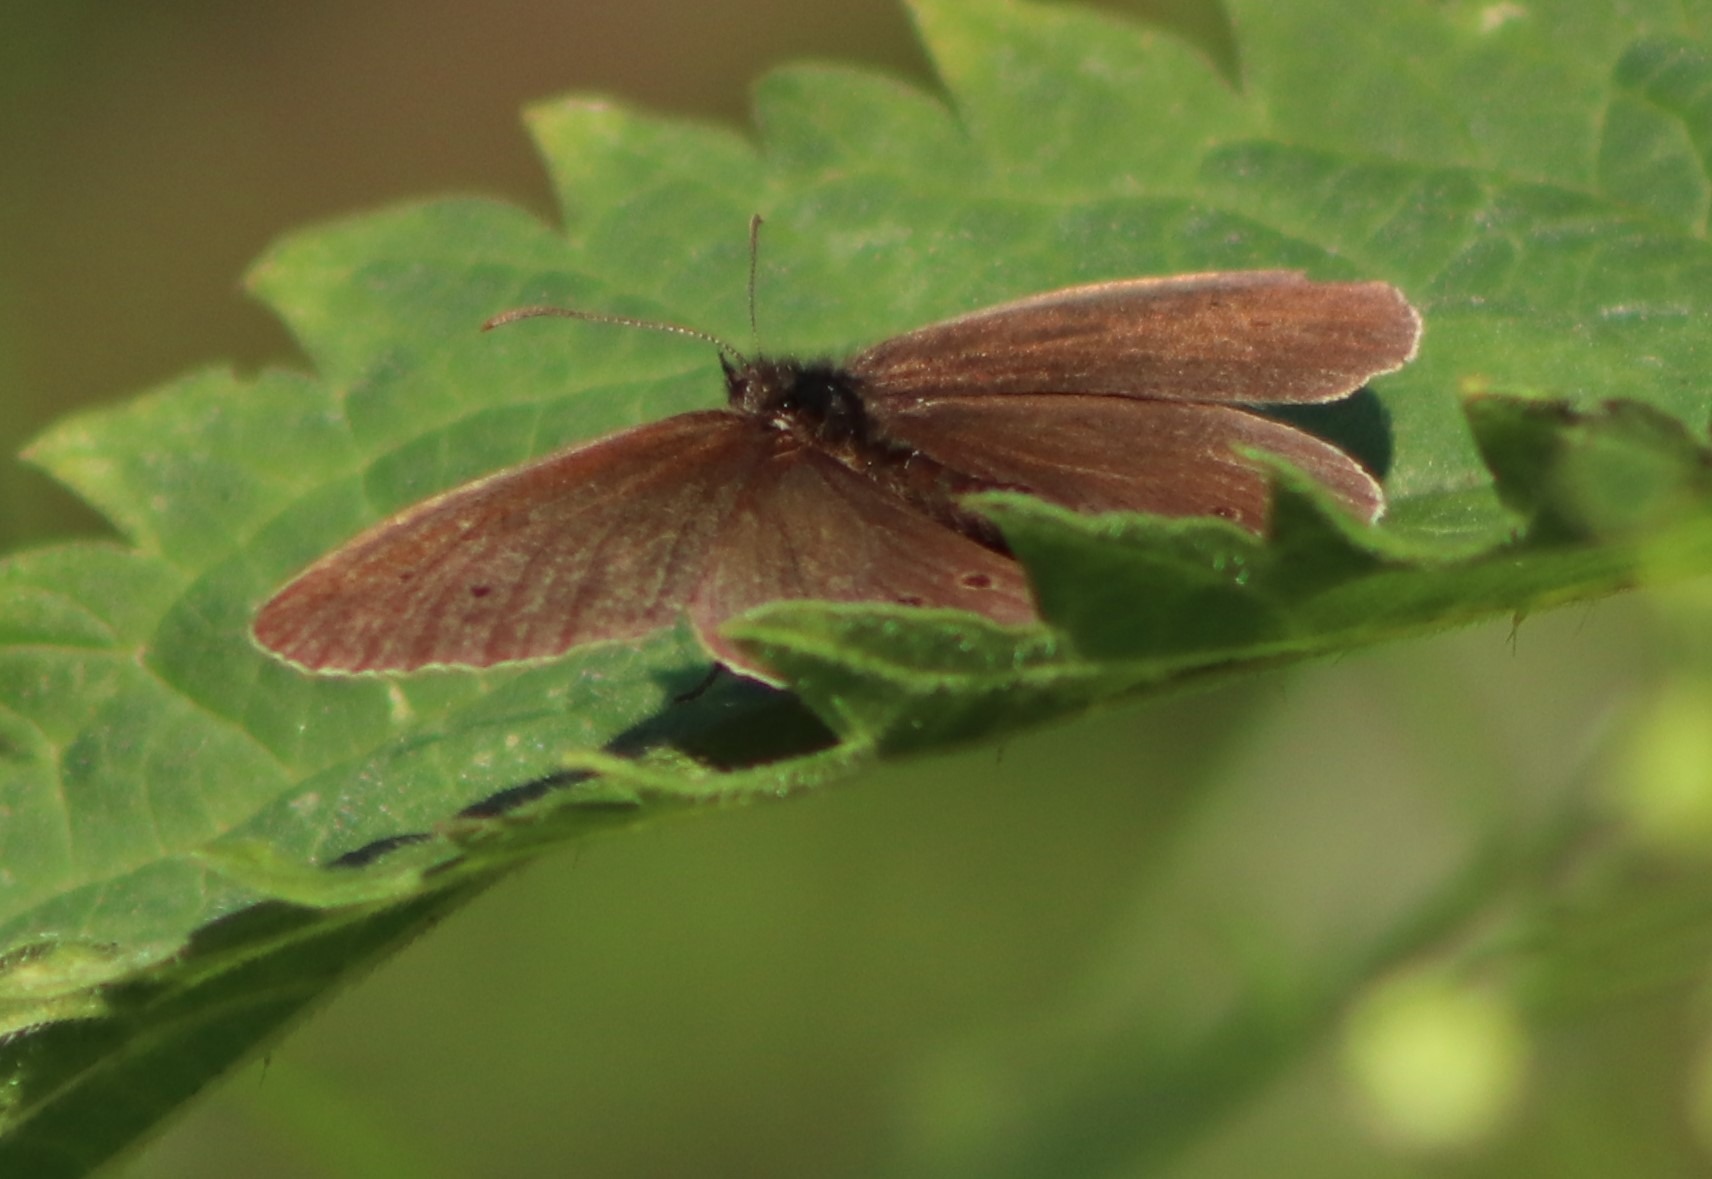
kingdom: Animalia
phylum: Arthropoda
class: Insecta
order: Lepidoptera
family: Nymphalidae
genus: Aphantopus
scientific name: Aphantopus hyperantus
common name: Engrandøje
